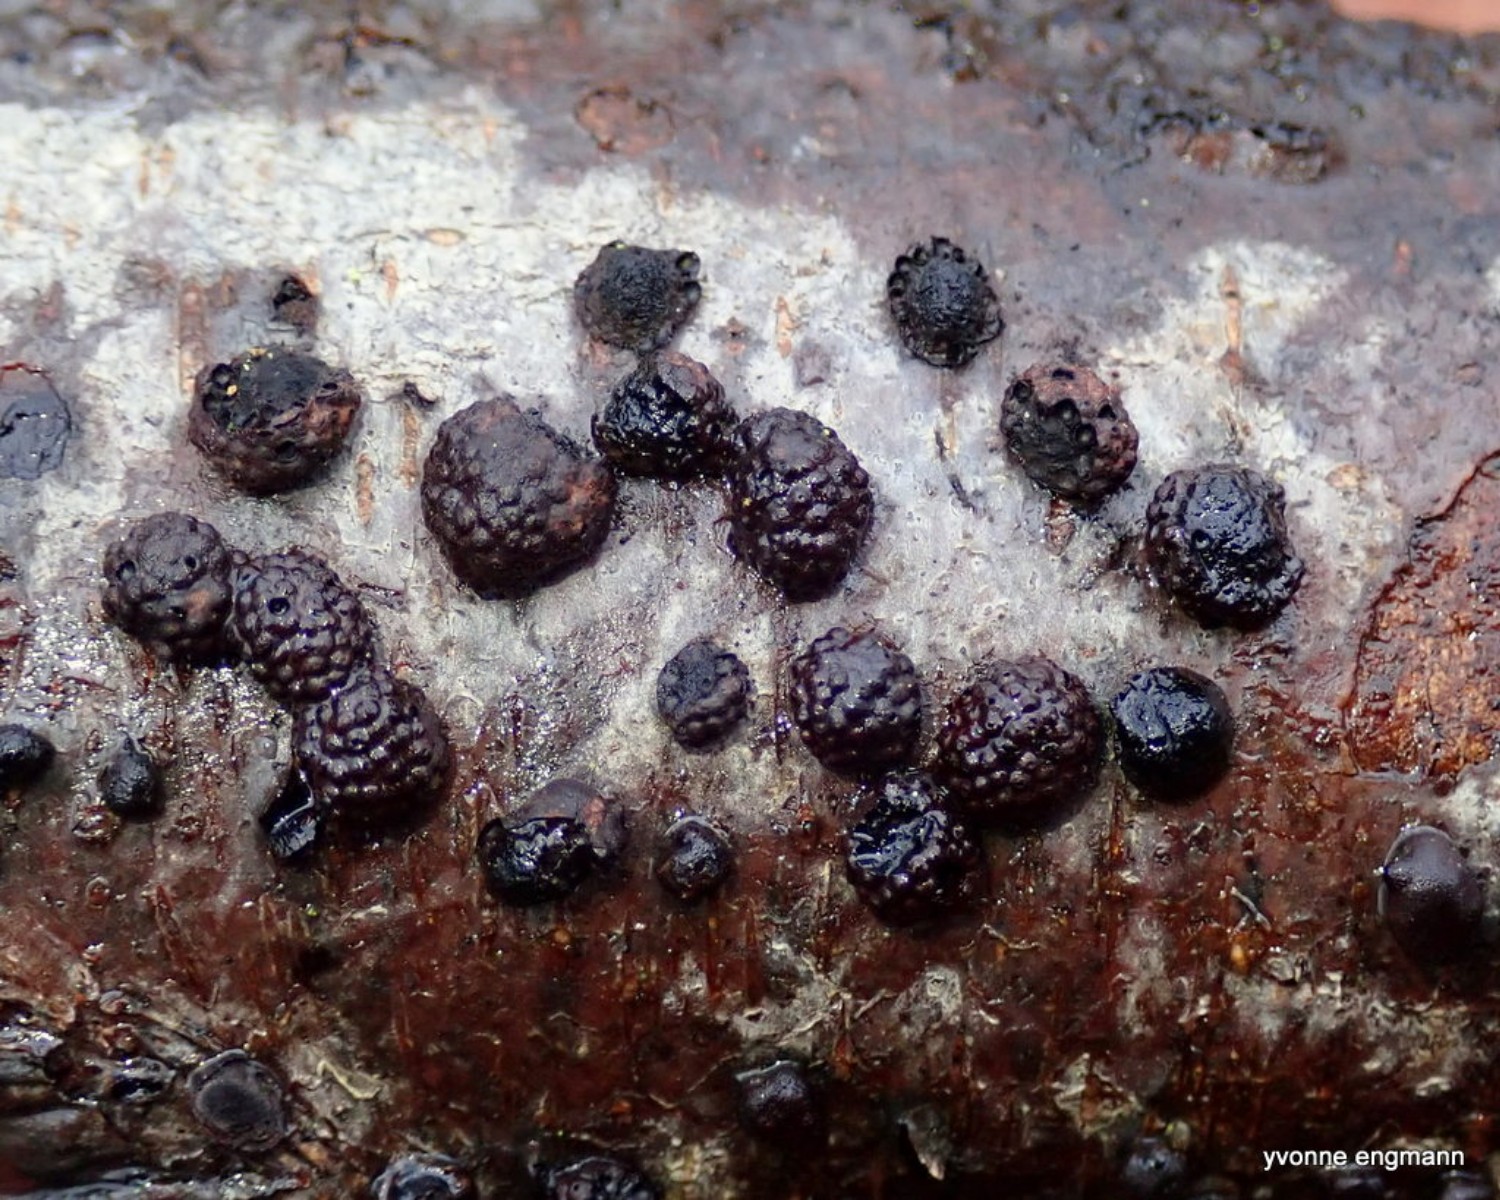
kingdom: Fungi
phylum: Ascomycota
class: Sordariomycetes
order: Xylariales
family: Hypoxylaceae
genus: Hypoxylon
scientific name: Hypoxylon fragiforme
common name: kuljordbær
